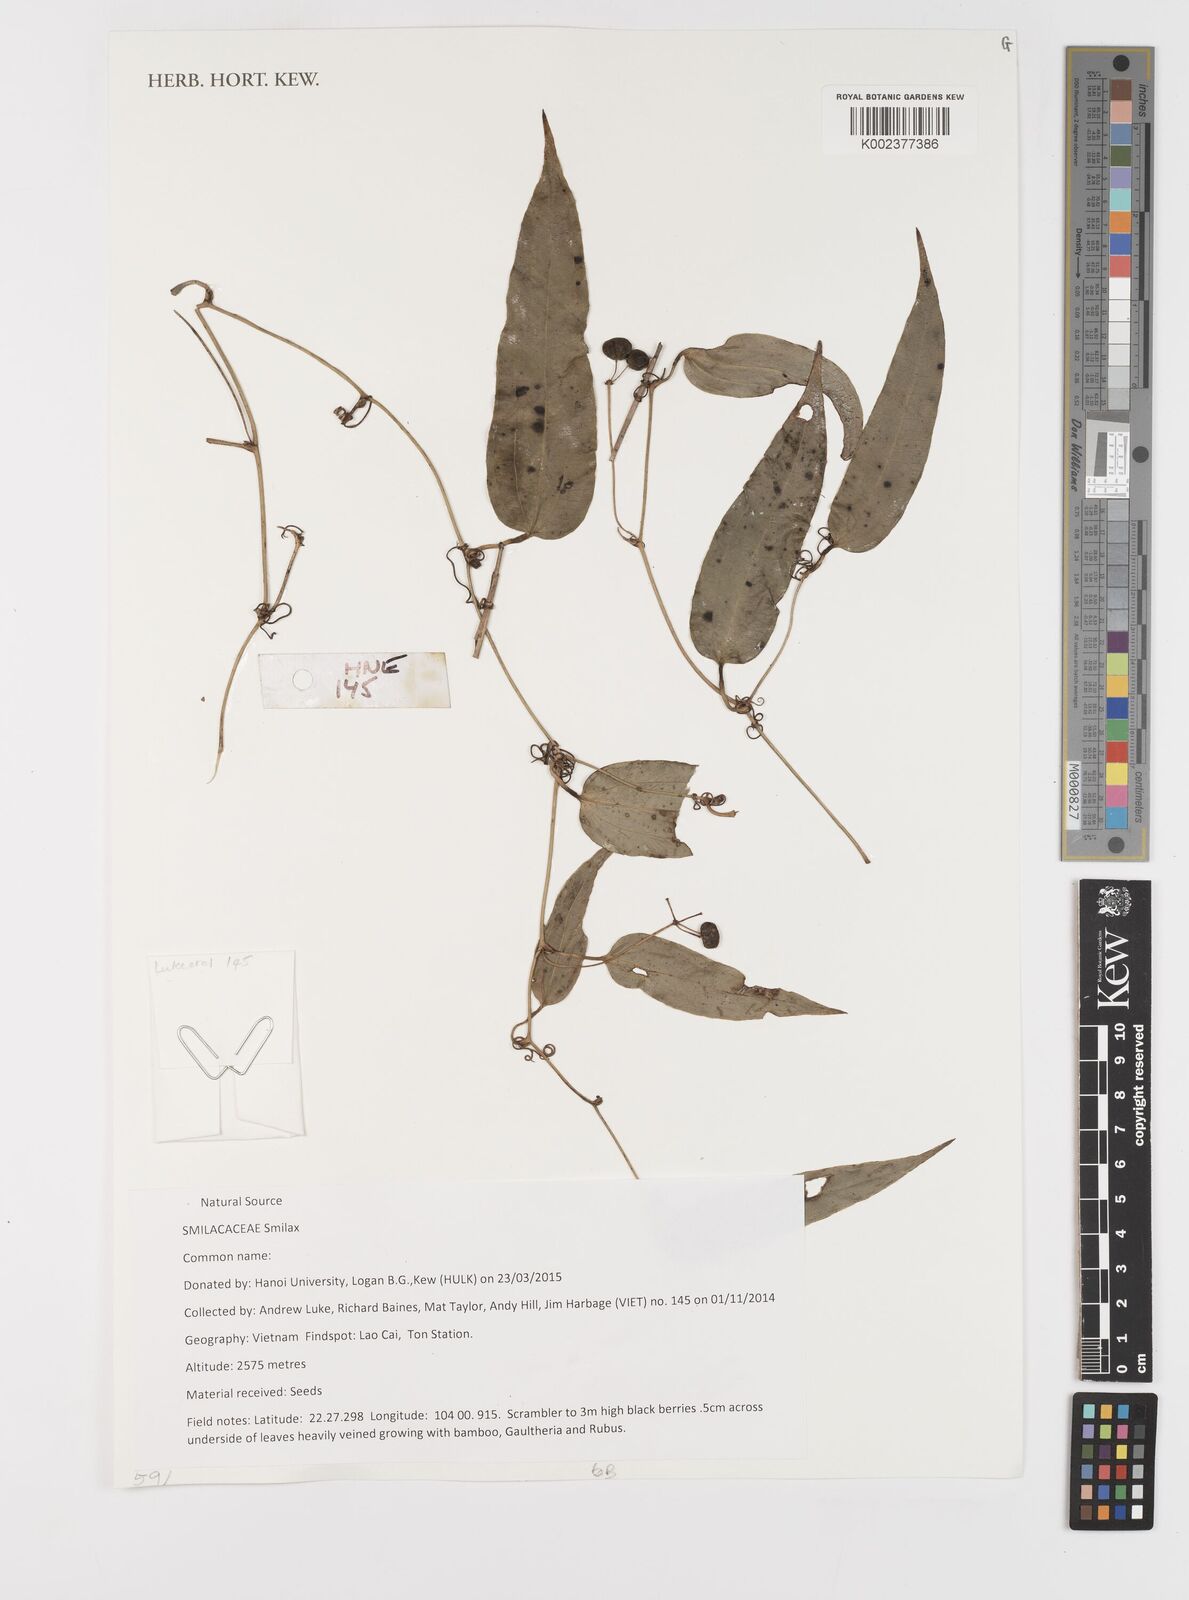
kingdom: Plantae
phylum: Tracheophyta
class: Liliopsida
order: Liliales
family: Smilacaceae
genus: Smilax
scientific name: Smilax
